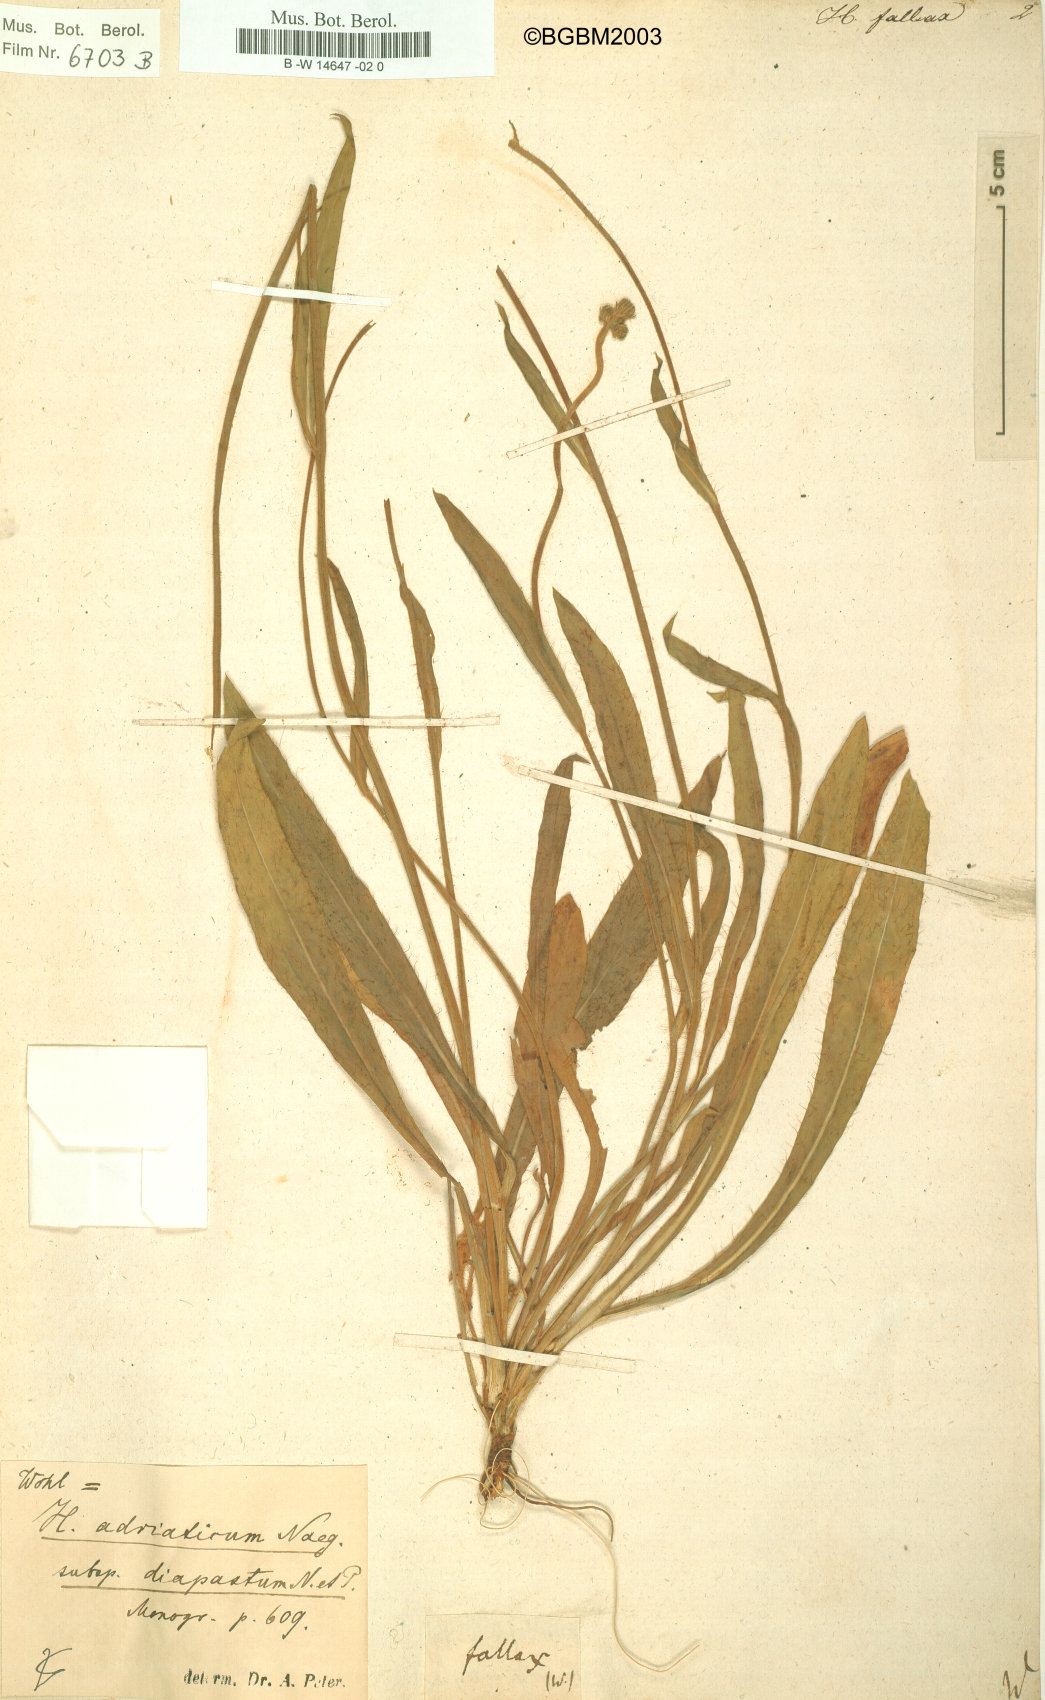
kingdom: Plantae
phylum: Tracheophyta
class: Magnoliopsida
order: Asterales
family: Asteraceae
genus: Hieracium
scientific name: Hieracium fallax
